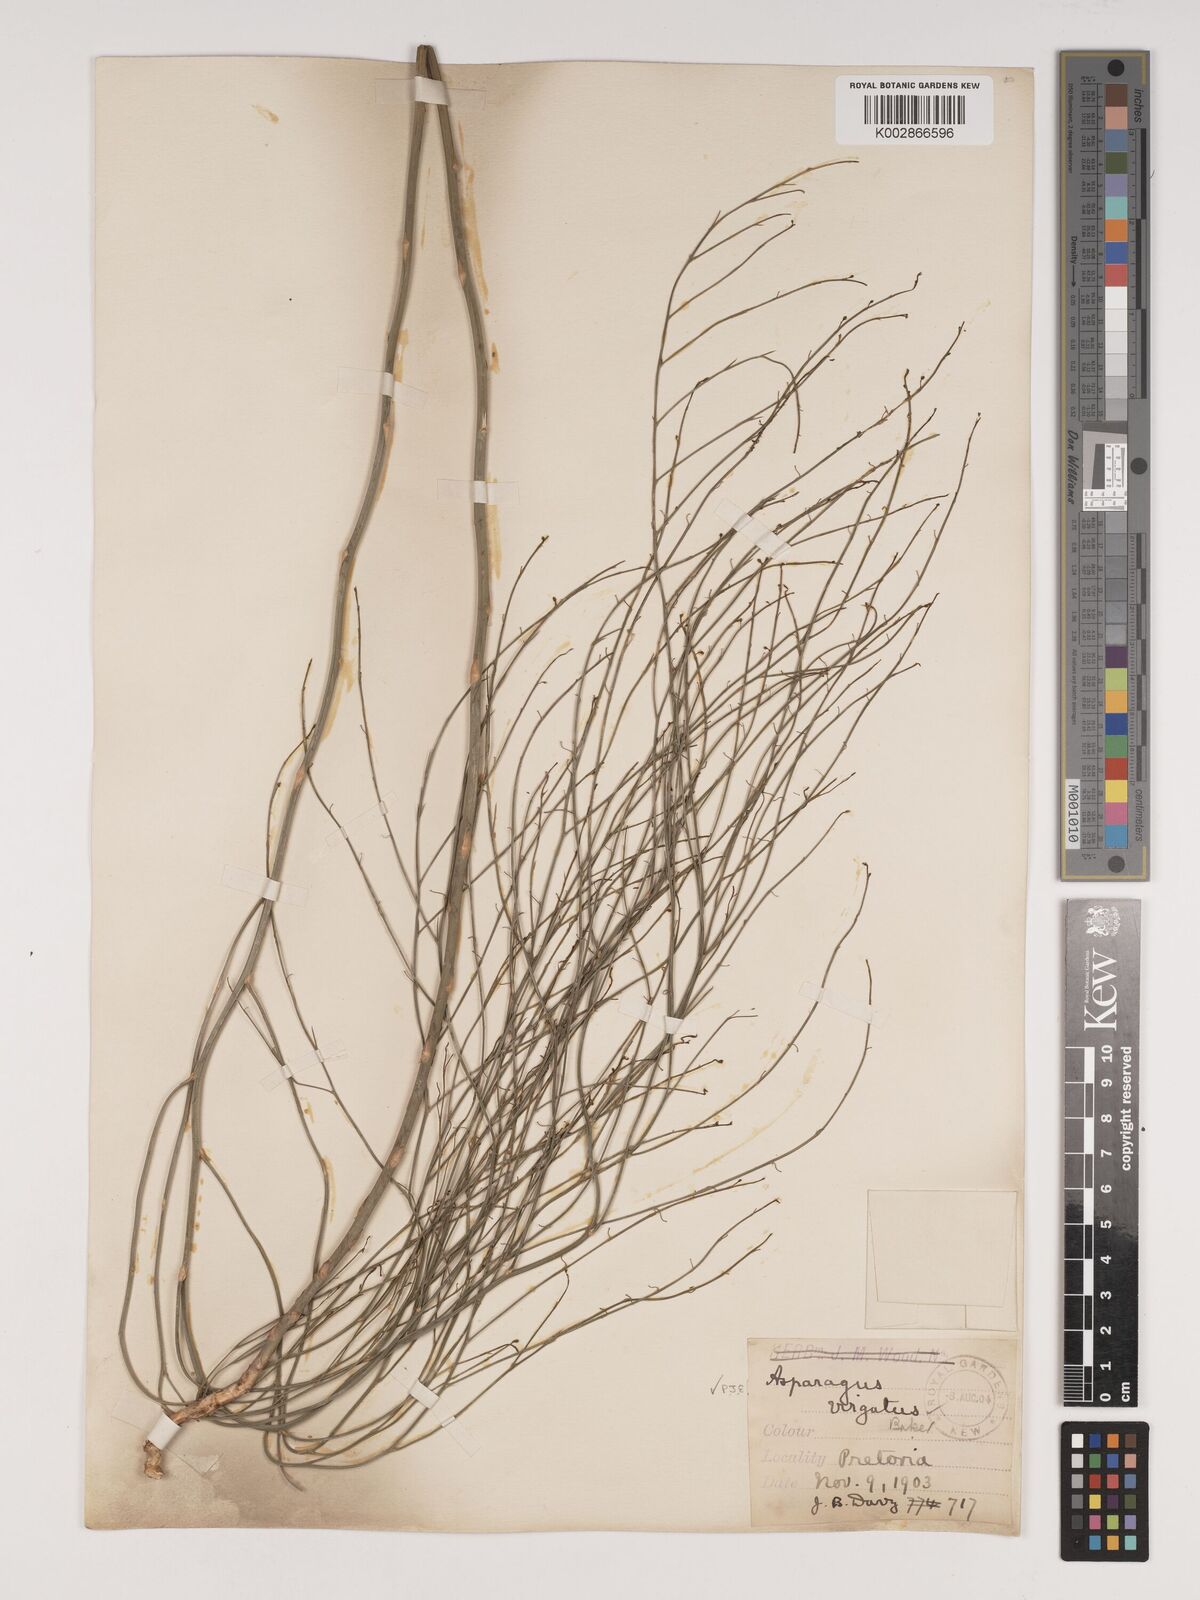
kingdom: Plantae
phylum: Tracheophyta
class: Liliopsida
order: Asparagales
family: Asparagaceae
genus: Asparagus
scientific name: Asparagus virgatus
